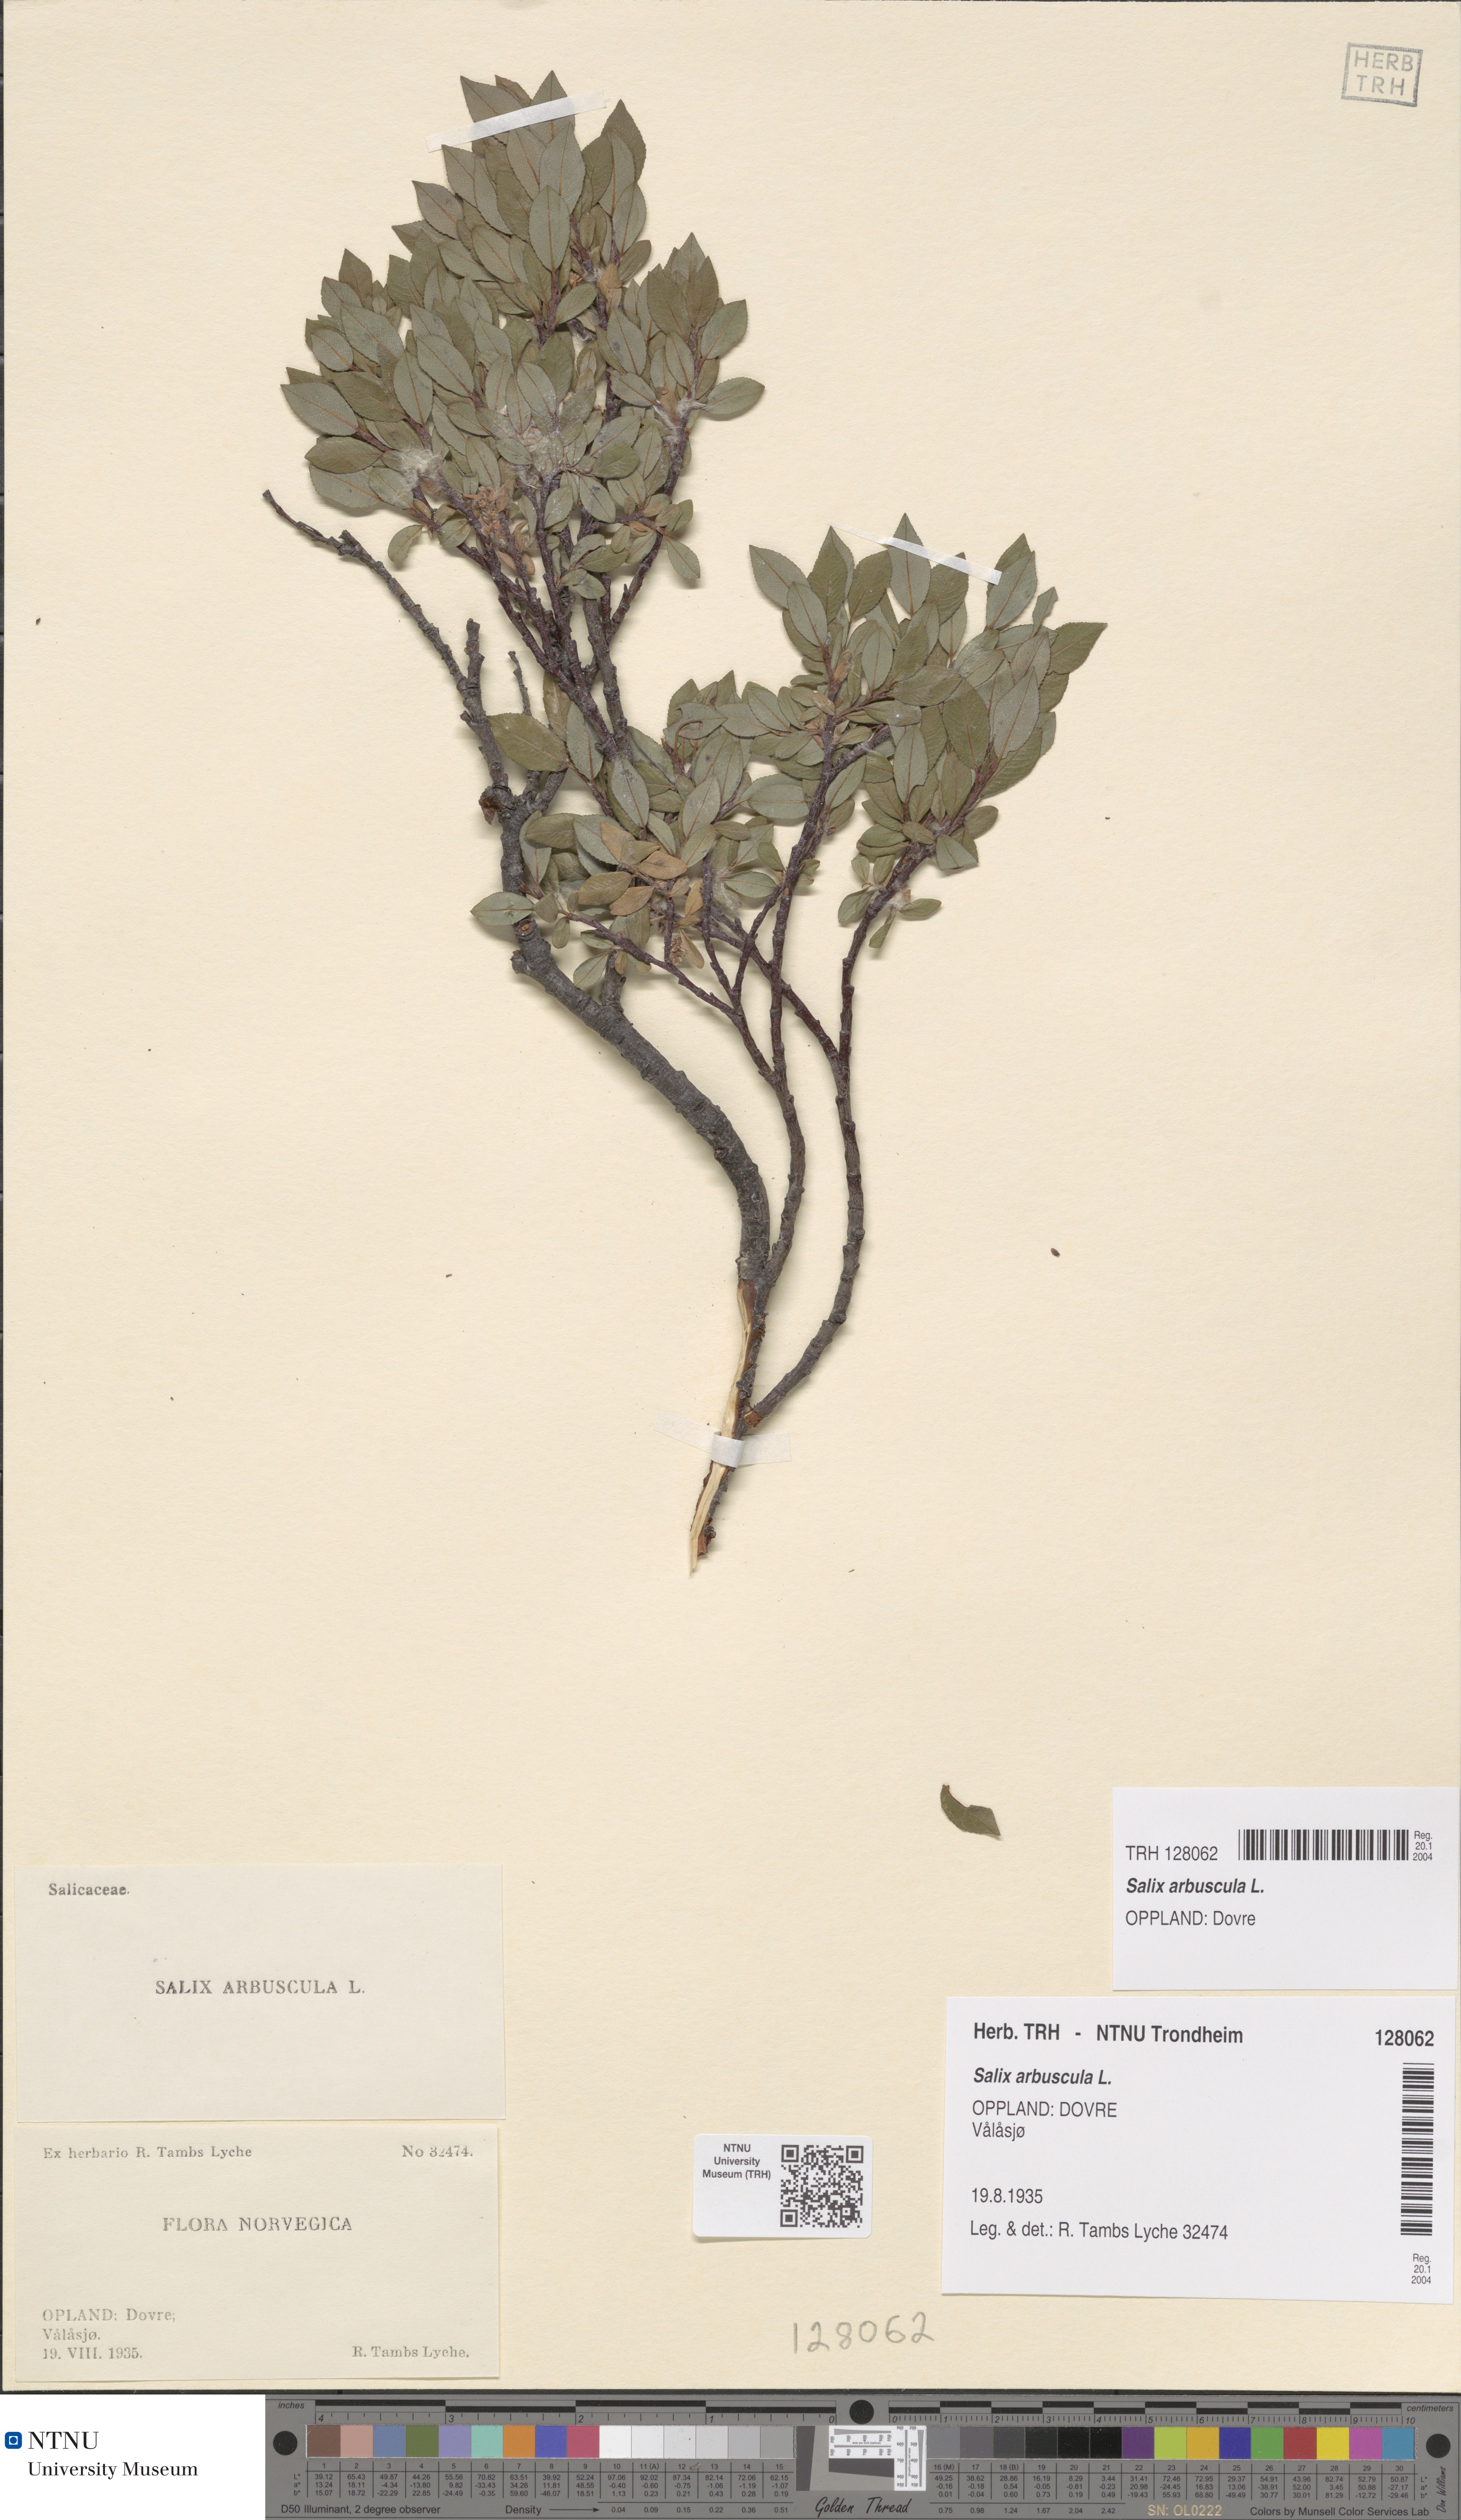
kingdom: Plantae
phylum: Tracheophyta
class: Magnoliopsida
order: Malpighiales
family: Salicaceae
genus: Salix
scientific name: Salix arbuscula
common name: Mountain willow
